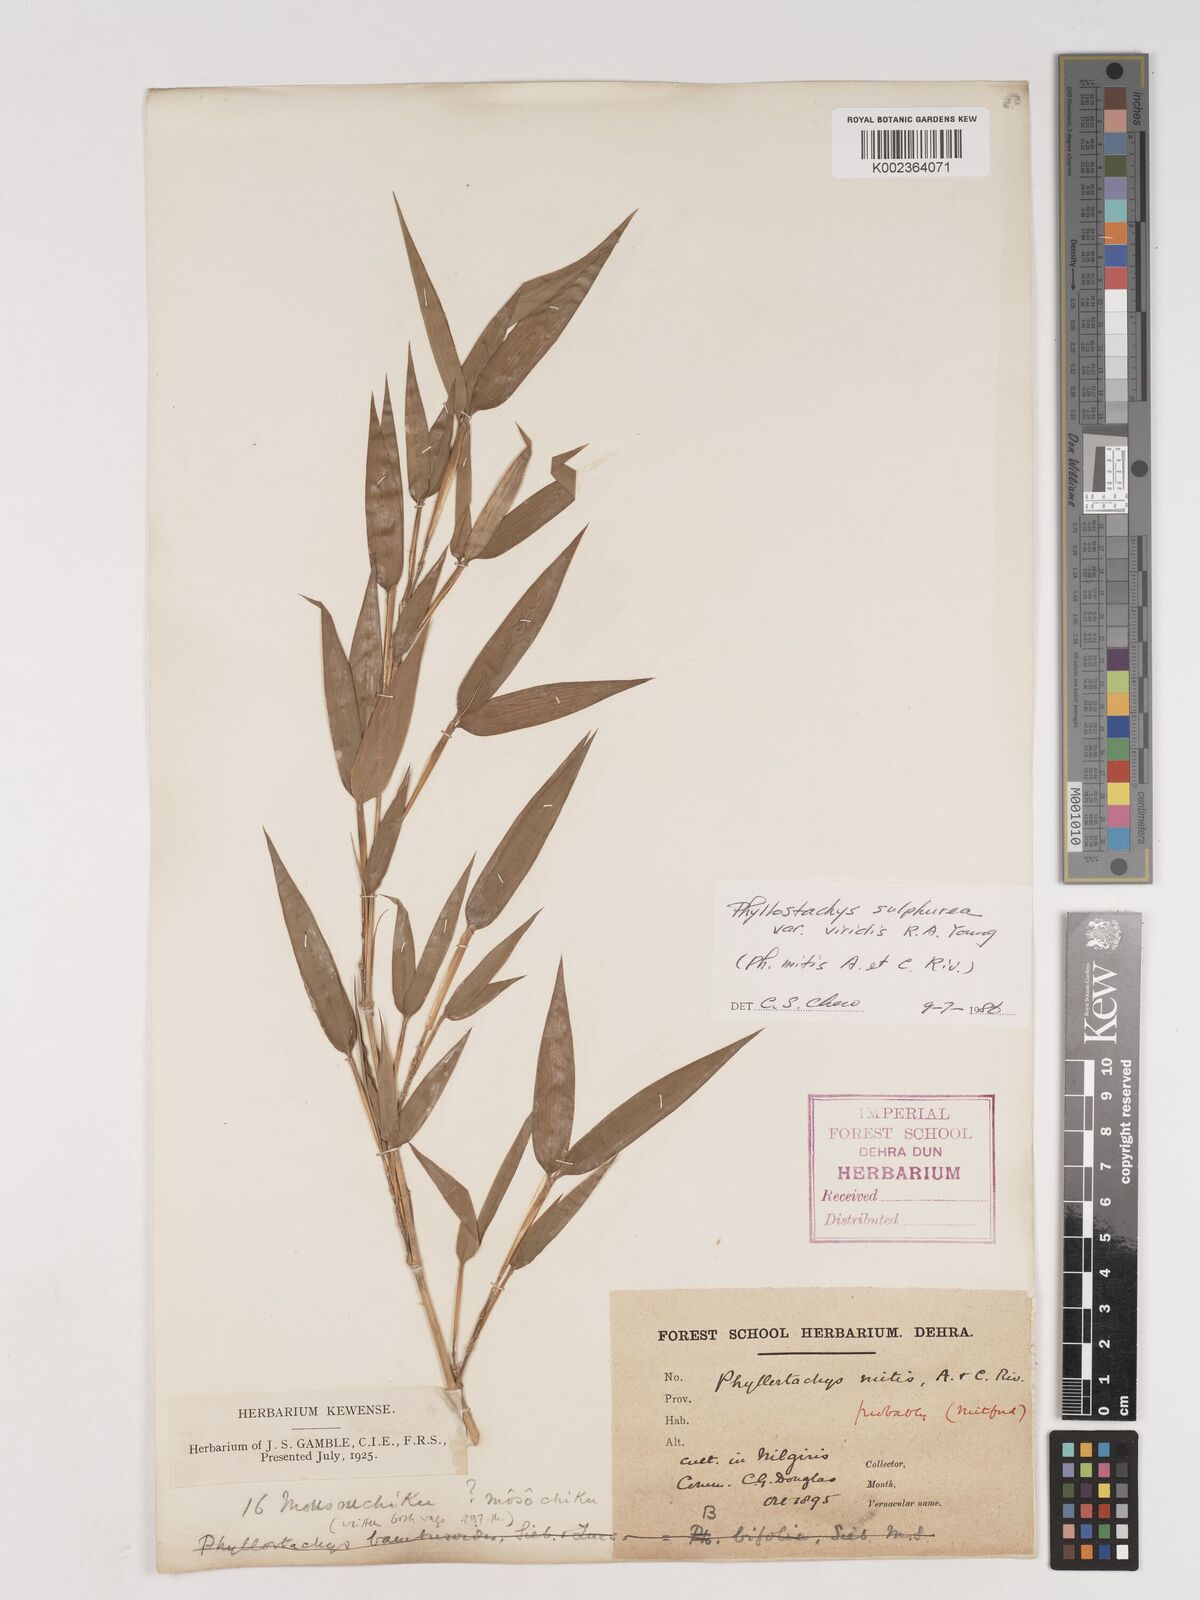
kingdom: Plantae
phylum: Tracheophyta
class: Liliopsida
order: Poales
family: Poaceae
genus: Phyllostachys
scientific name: Phyllostachys sulphurea
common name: Sulphur bamboo
